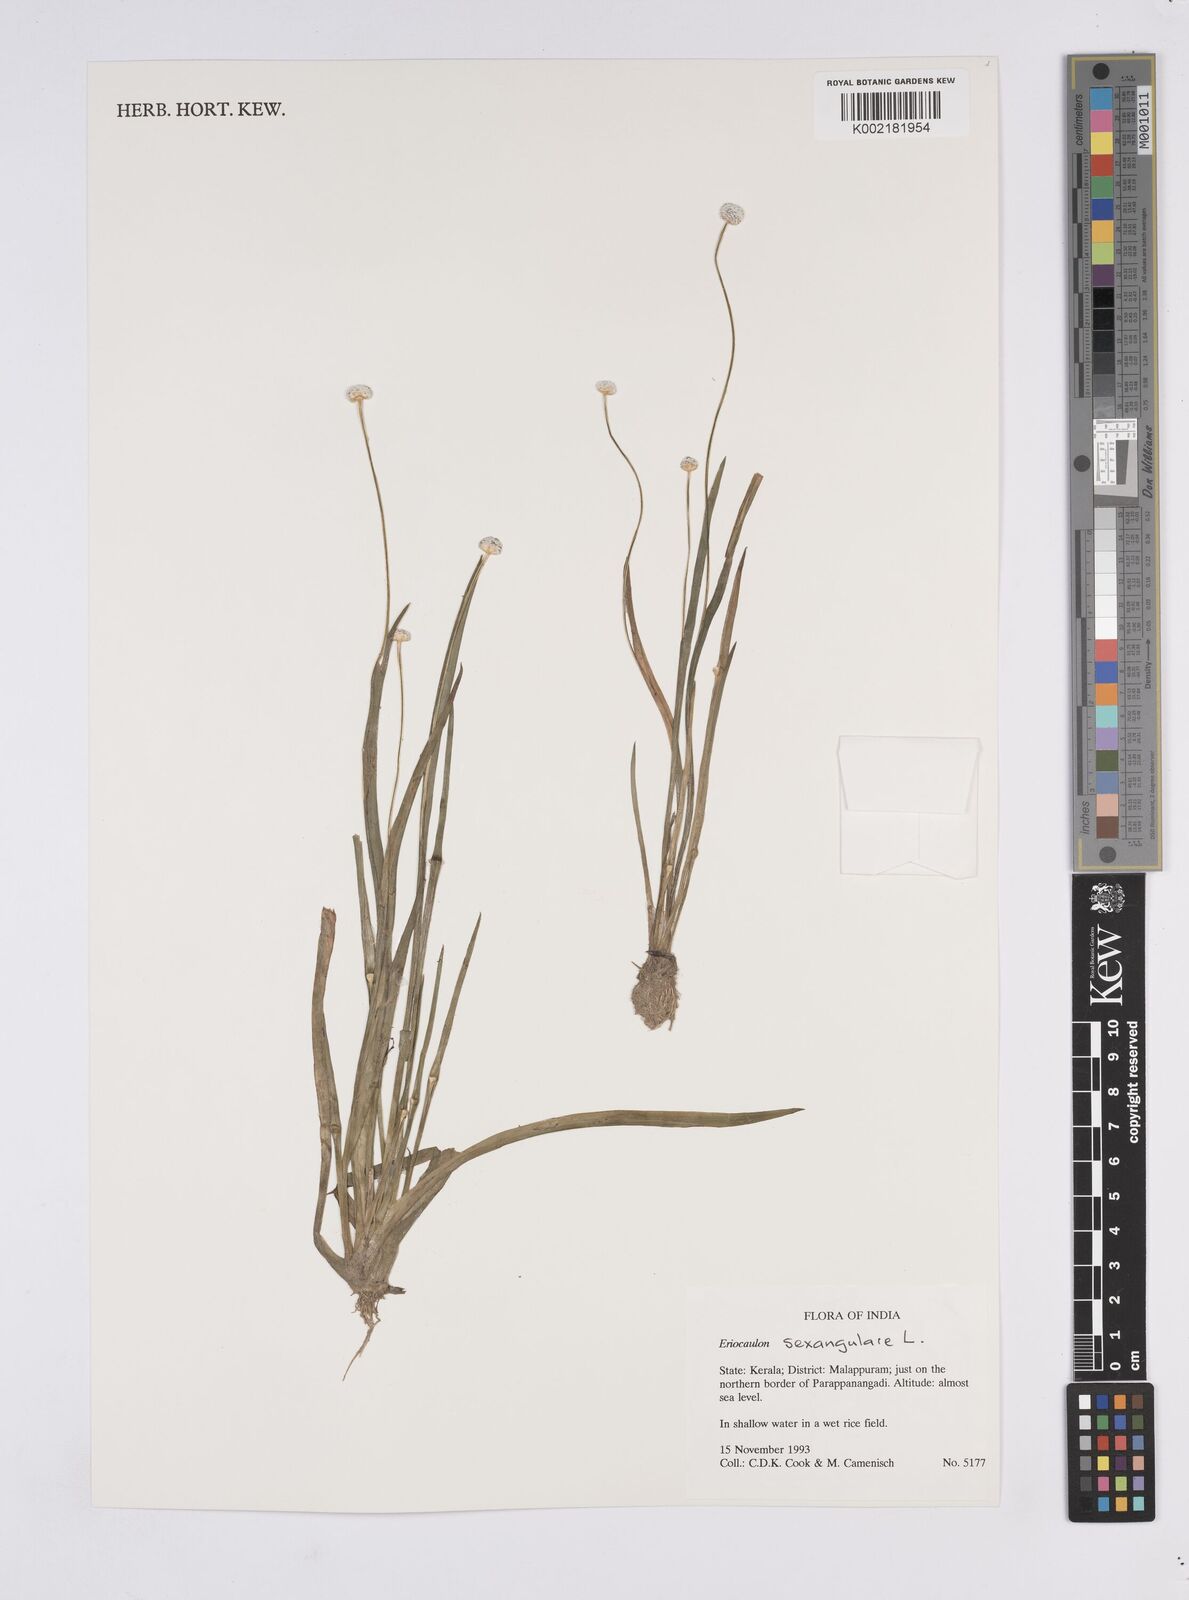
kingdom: Plantae
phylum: Tracheophyta
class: Liliopsida
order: Poales
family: Eriocaulaceae
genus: Eriocaulon
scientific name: Eriocaulon sexangulare
